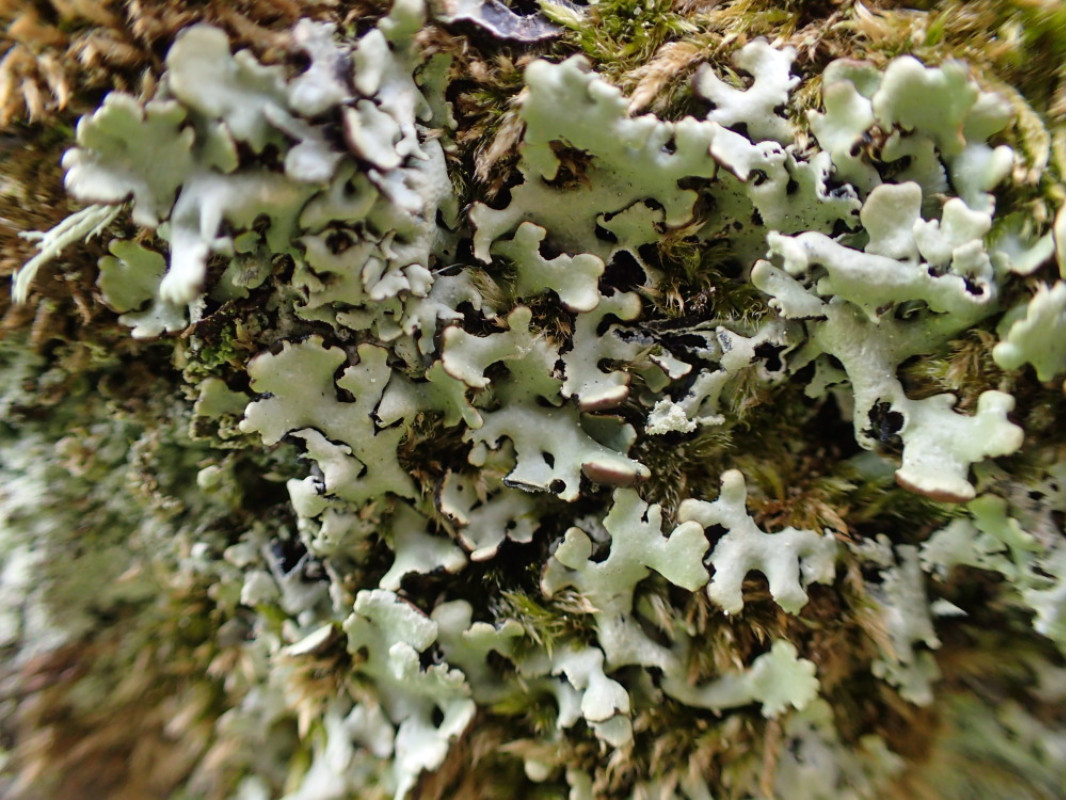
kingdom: Fungi
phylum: Ascomycota
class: Lecanoromycetes
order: Lecanorales
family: Parmeliaceae
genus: Hypogymnia
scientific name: Hypogymnia physodes
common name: almindelig kvistlav
